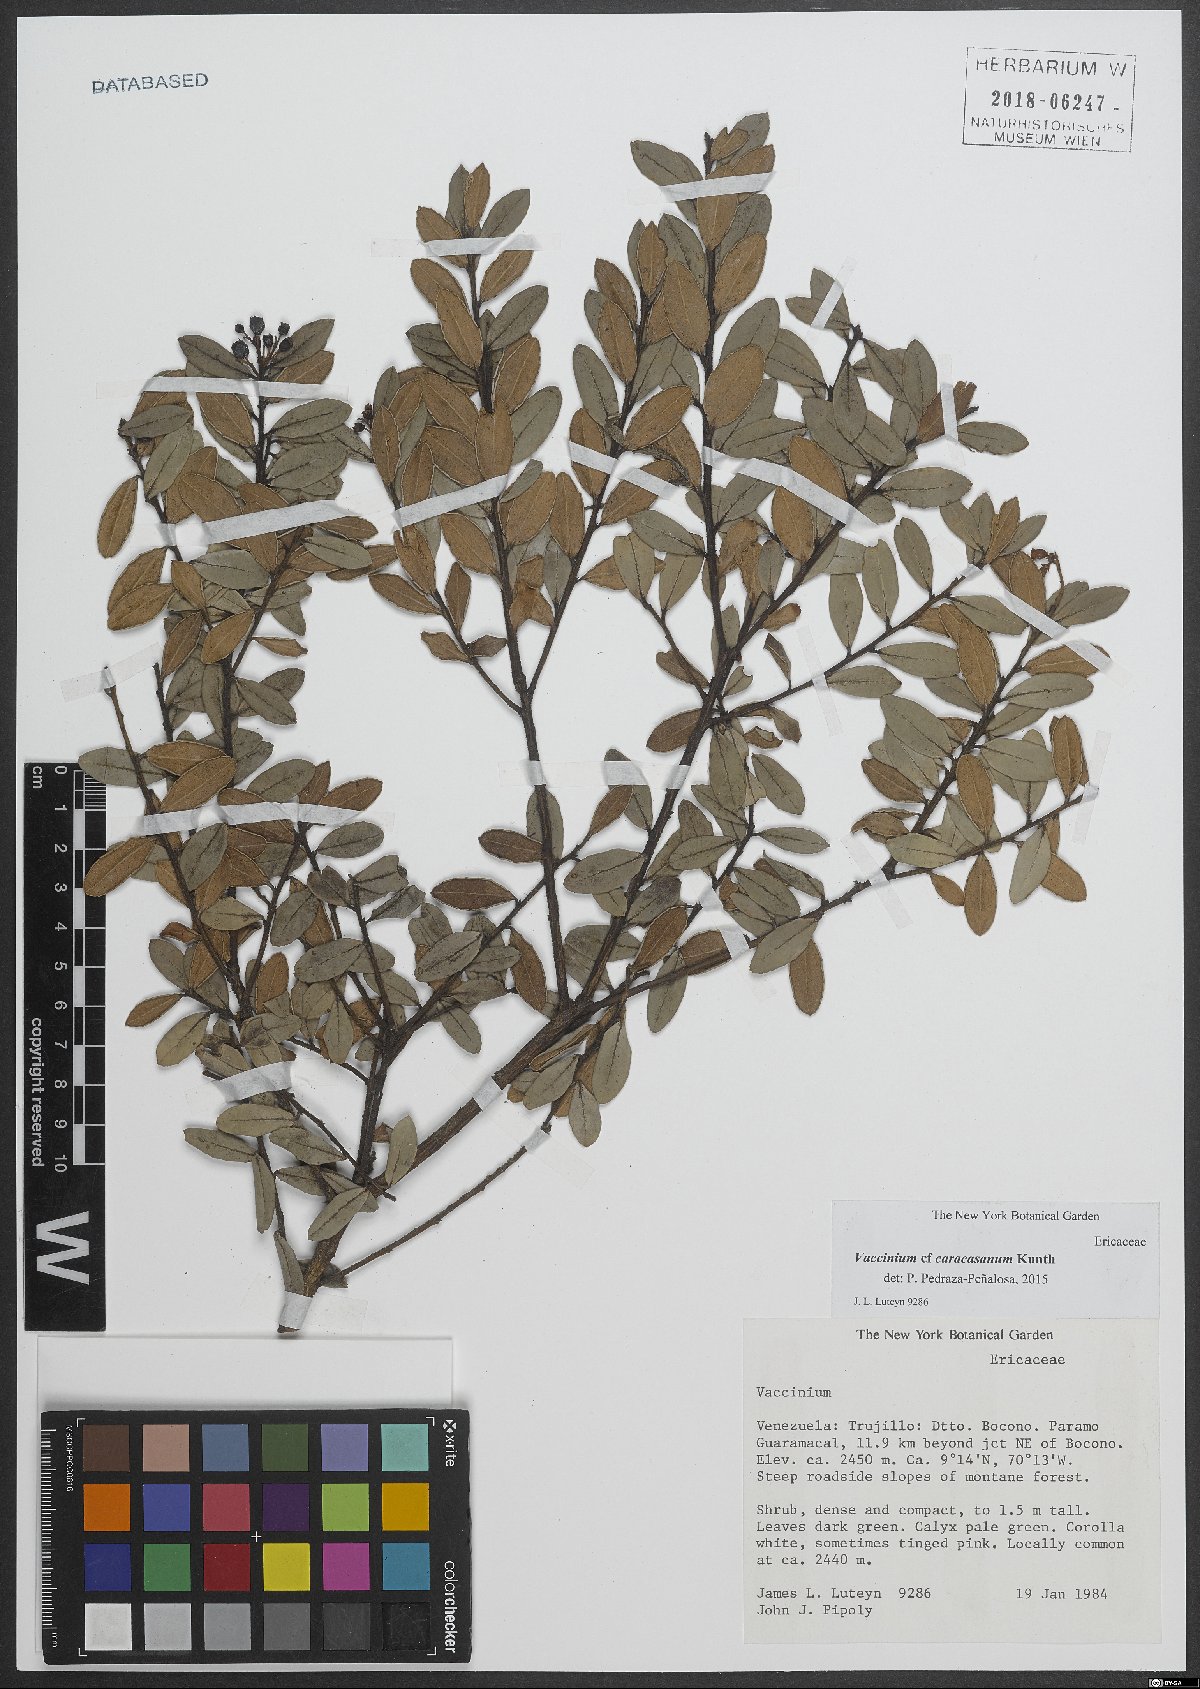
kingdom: Plantae
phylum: Tracheophyta
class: Magnoliopsida
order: Ericales
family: Ericaceae
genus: Vaccinium
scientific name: Vaccinium meridionale
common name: Andean blueberry
